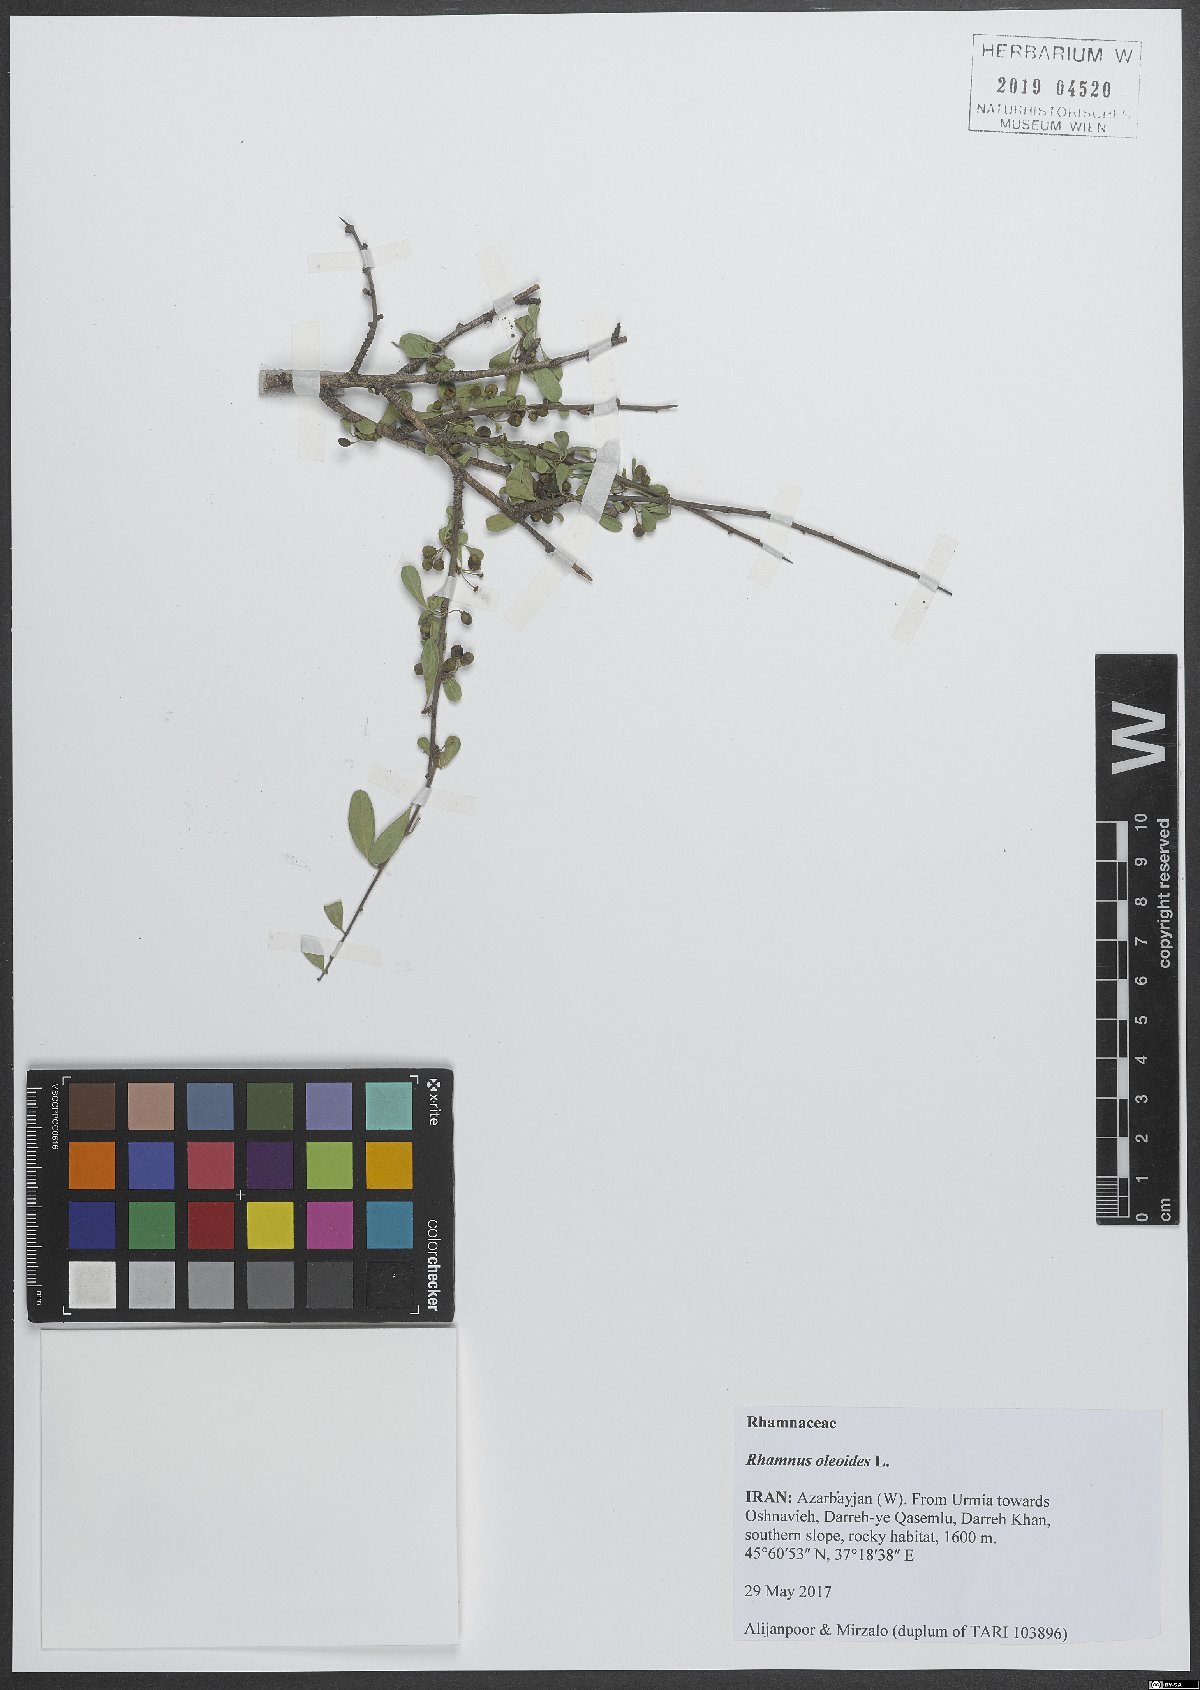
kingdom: Plantae
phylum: Tracheophyta
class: Magnoliopsida
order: Rosales
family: Rhamnaceae
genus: Rhamnus
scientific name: Rhamnus oleoides
